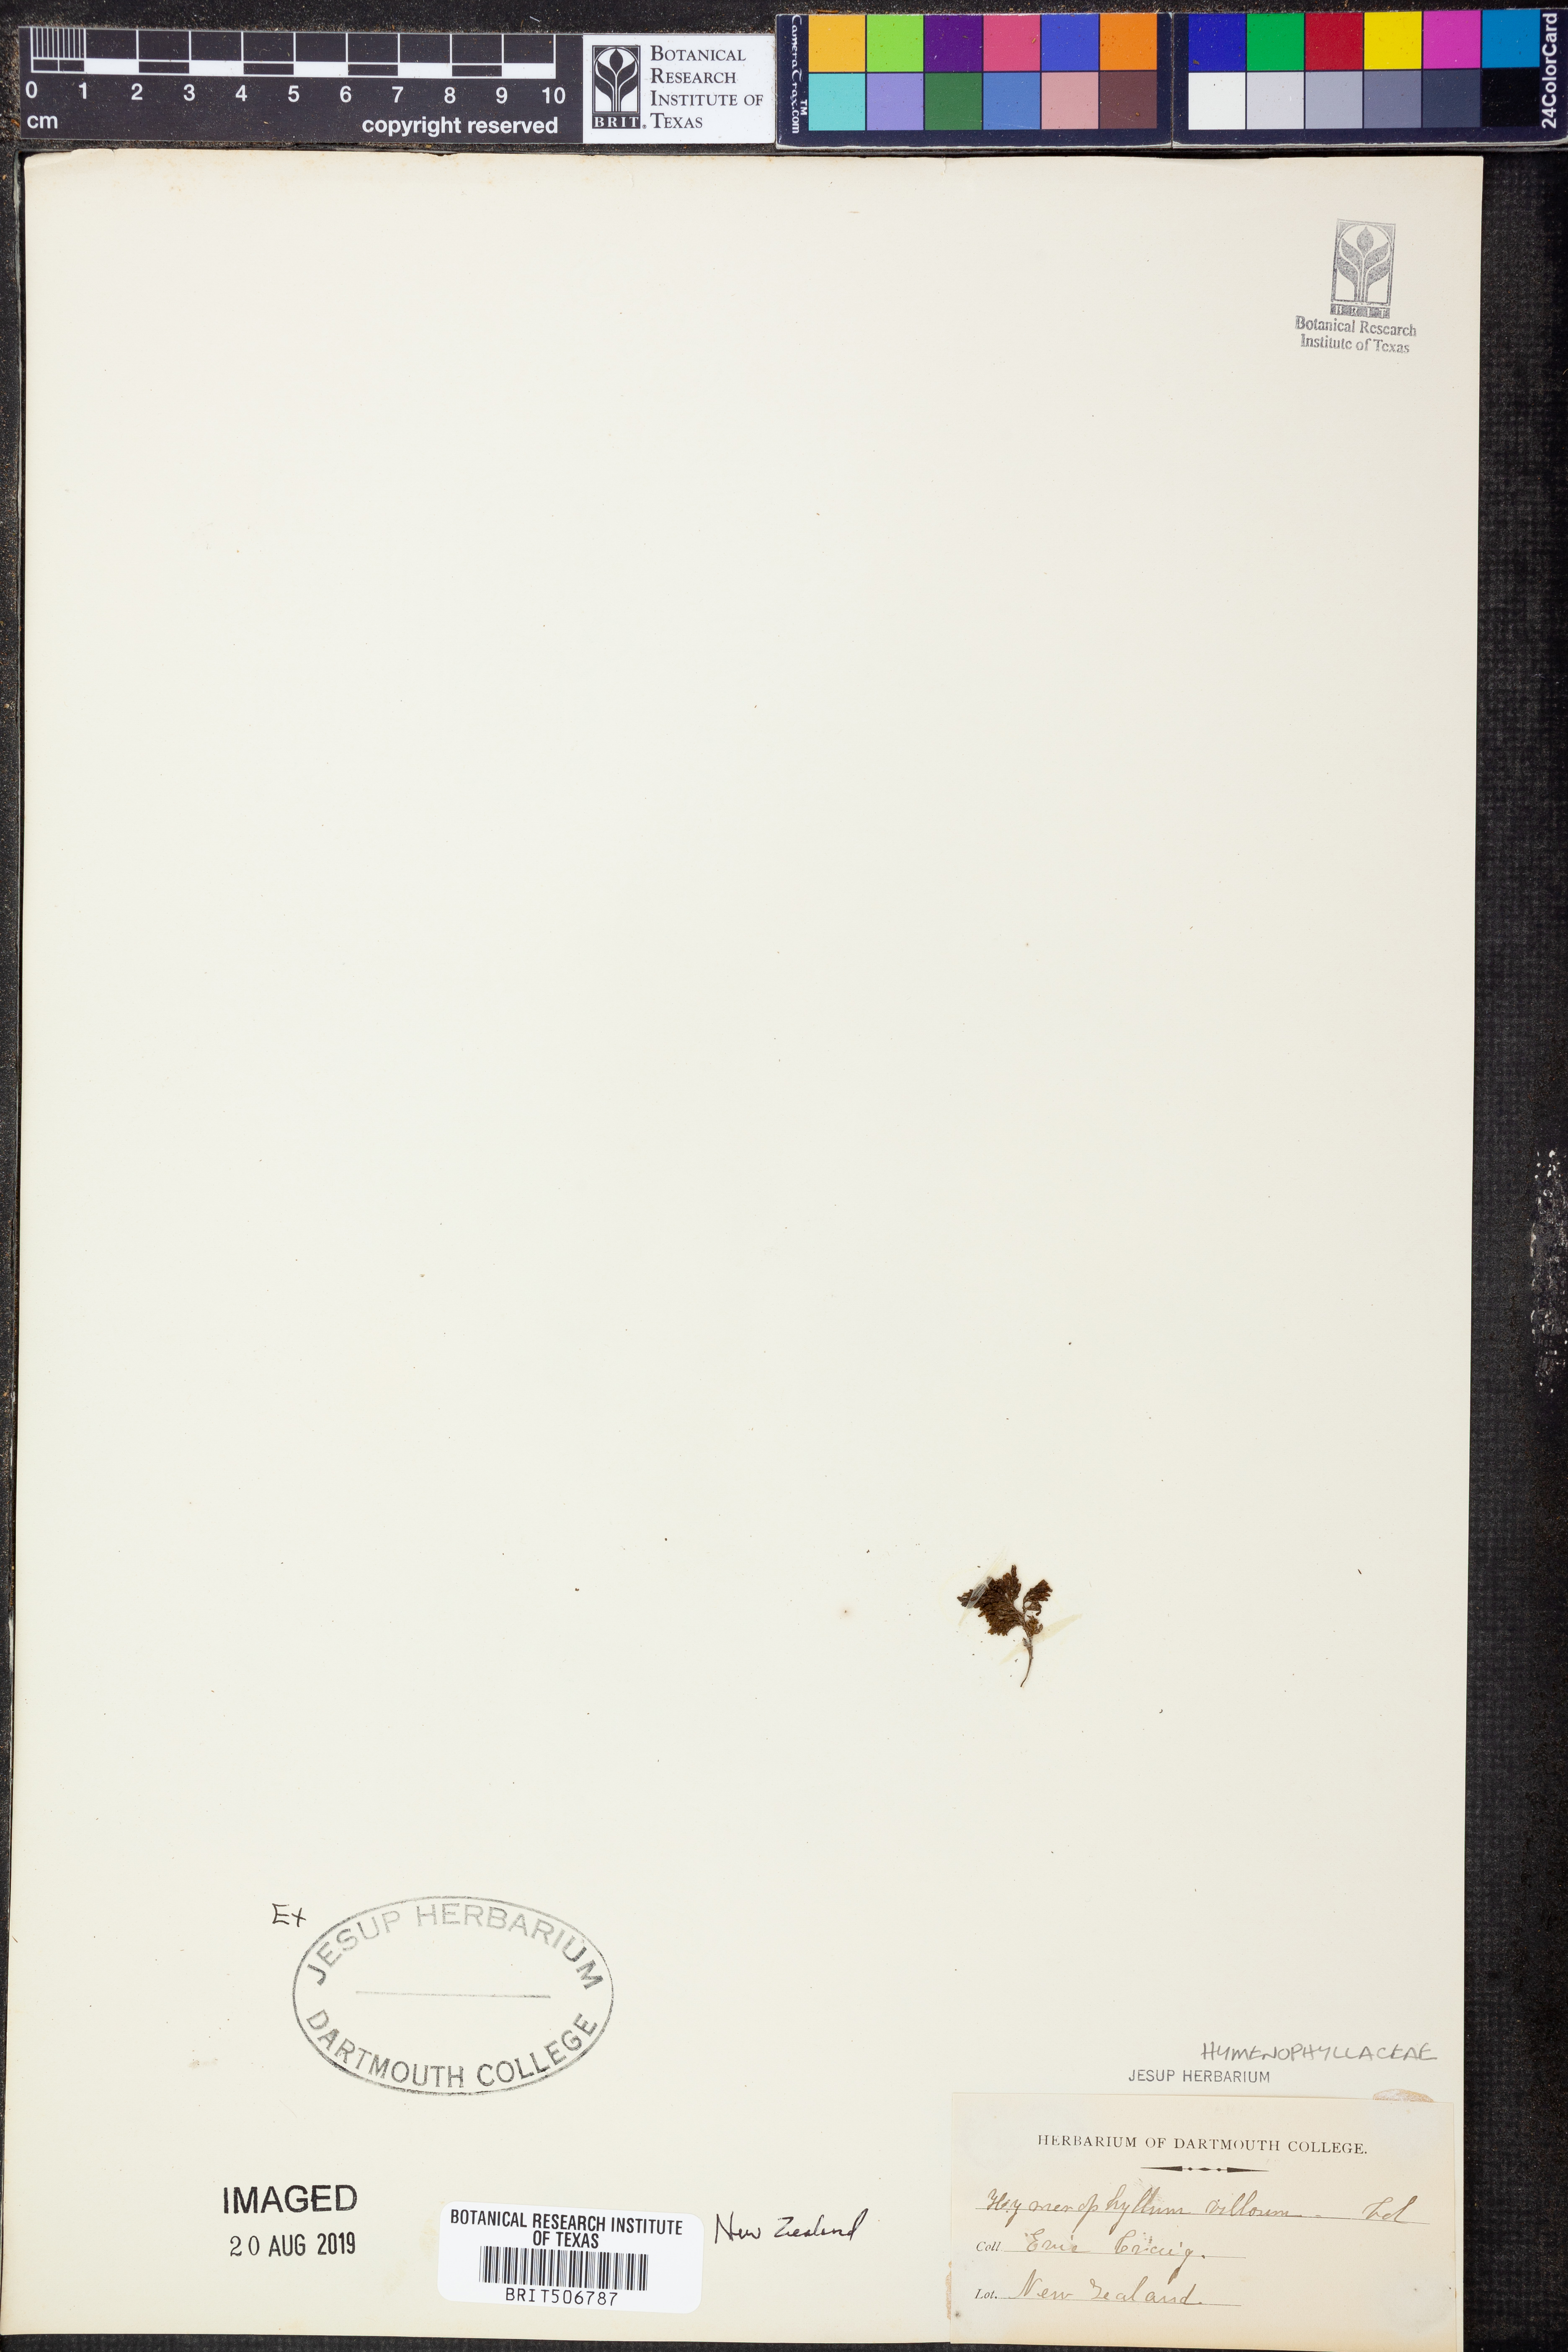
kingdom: Plantae
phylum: Tracheophyta
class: Polypodiopsida
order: Hymenophyllales
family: Hymenophyllaceae
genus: Hymenophyllum
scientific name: Hymenophyllum villosum
